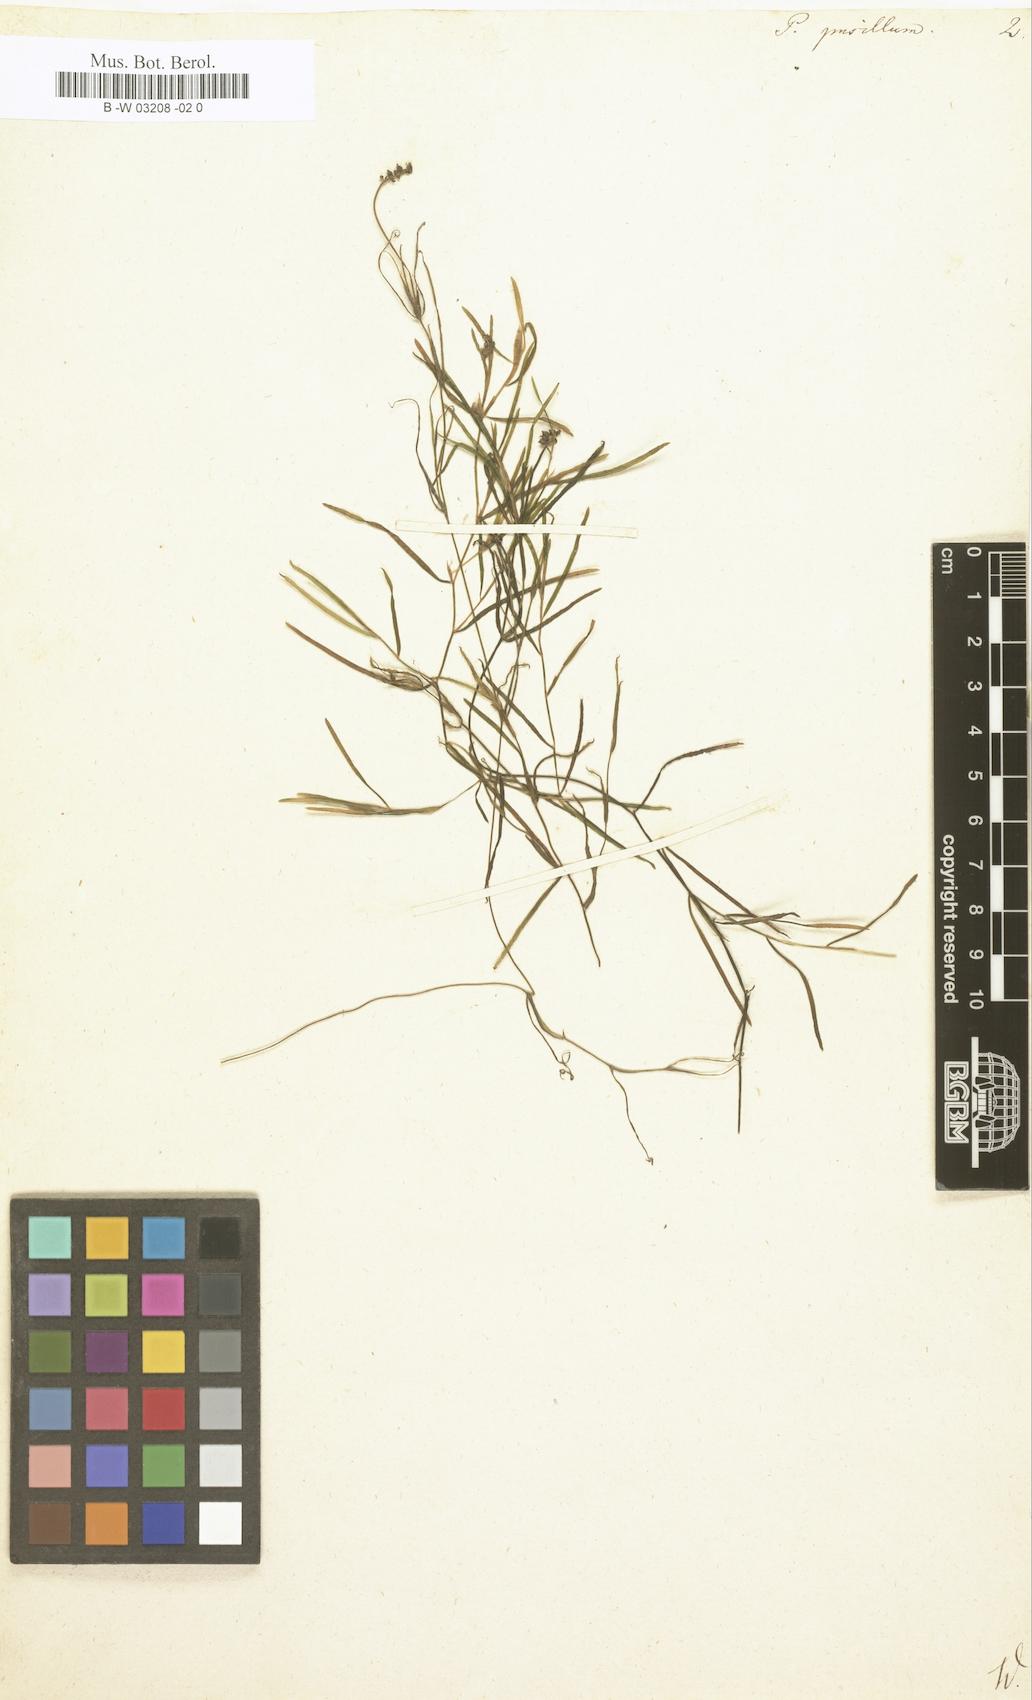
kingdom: Plantae
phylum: Tracheophyta
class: Liliopsida
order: Alismatales
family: Potamogetonaceae
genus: Potamogeton
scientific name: Potamogeton pusillus
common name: Lesser pondweed
